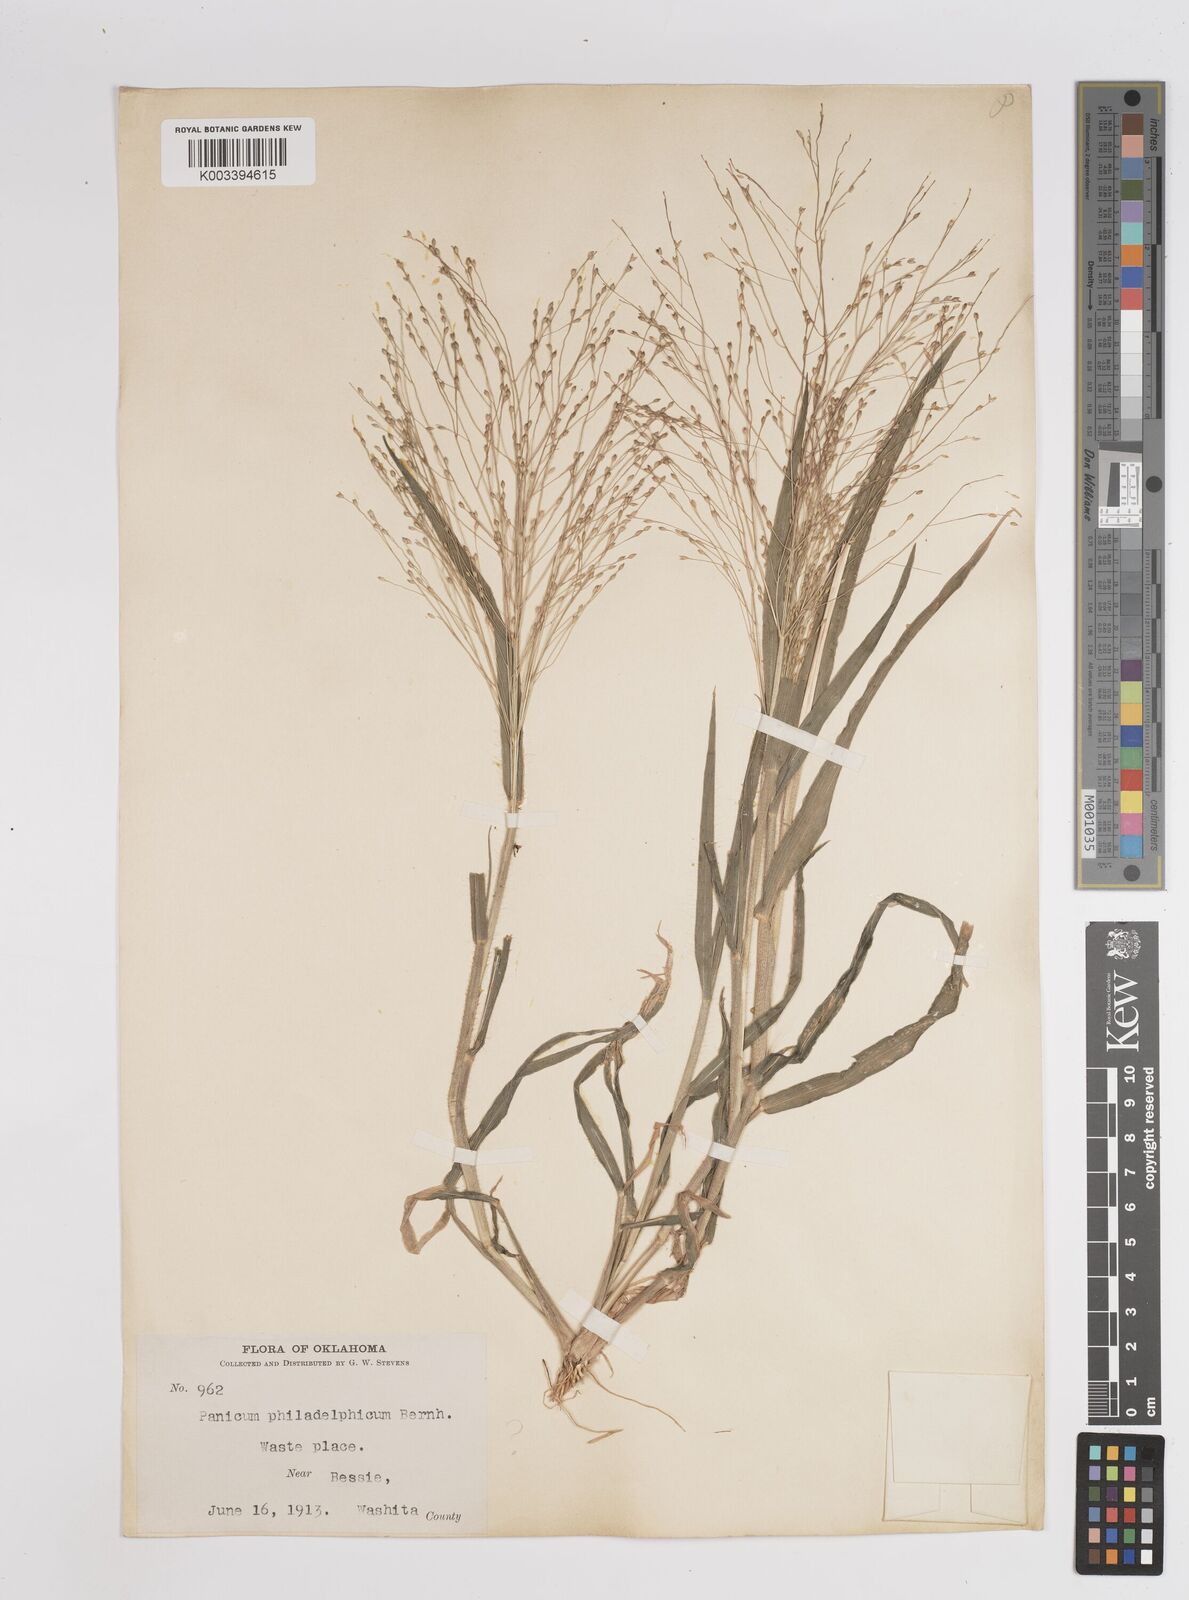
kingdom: Plantae
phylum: Tracheophyta
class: Liliopsida
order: Poales
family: Poaceae
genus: Panicum
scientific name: Panicum capillare
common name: Witch-grass
